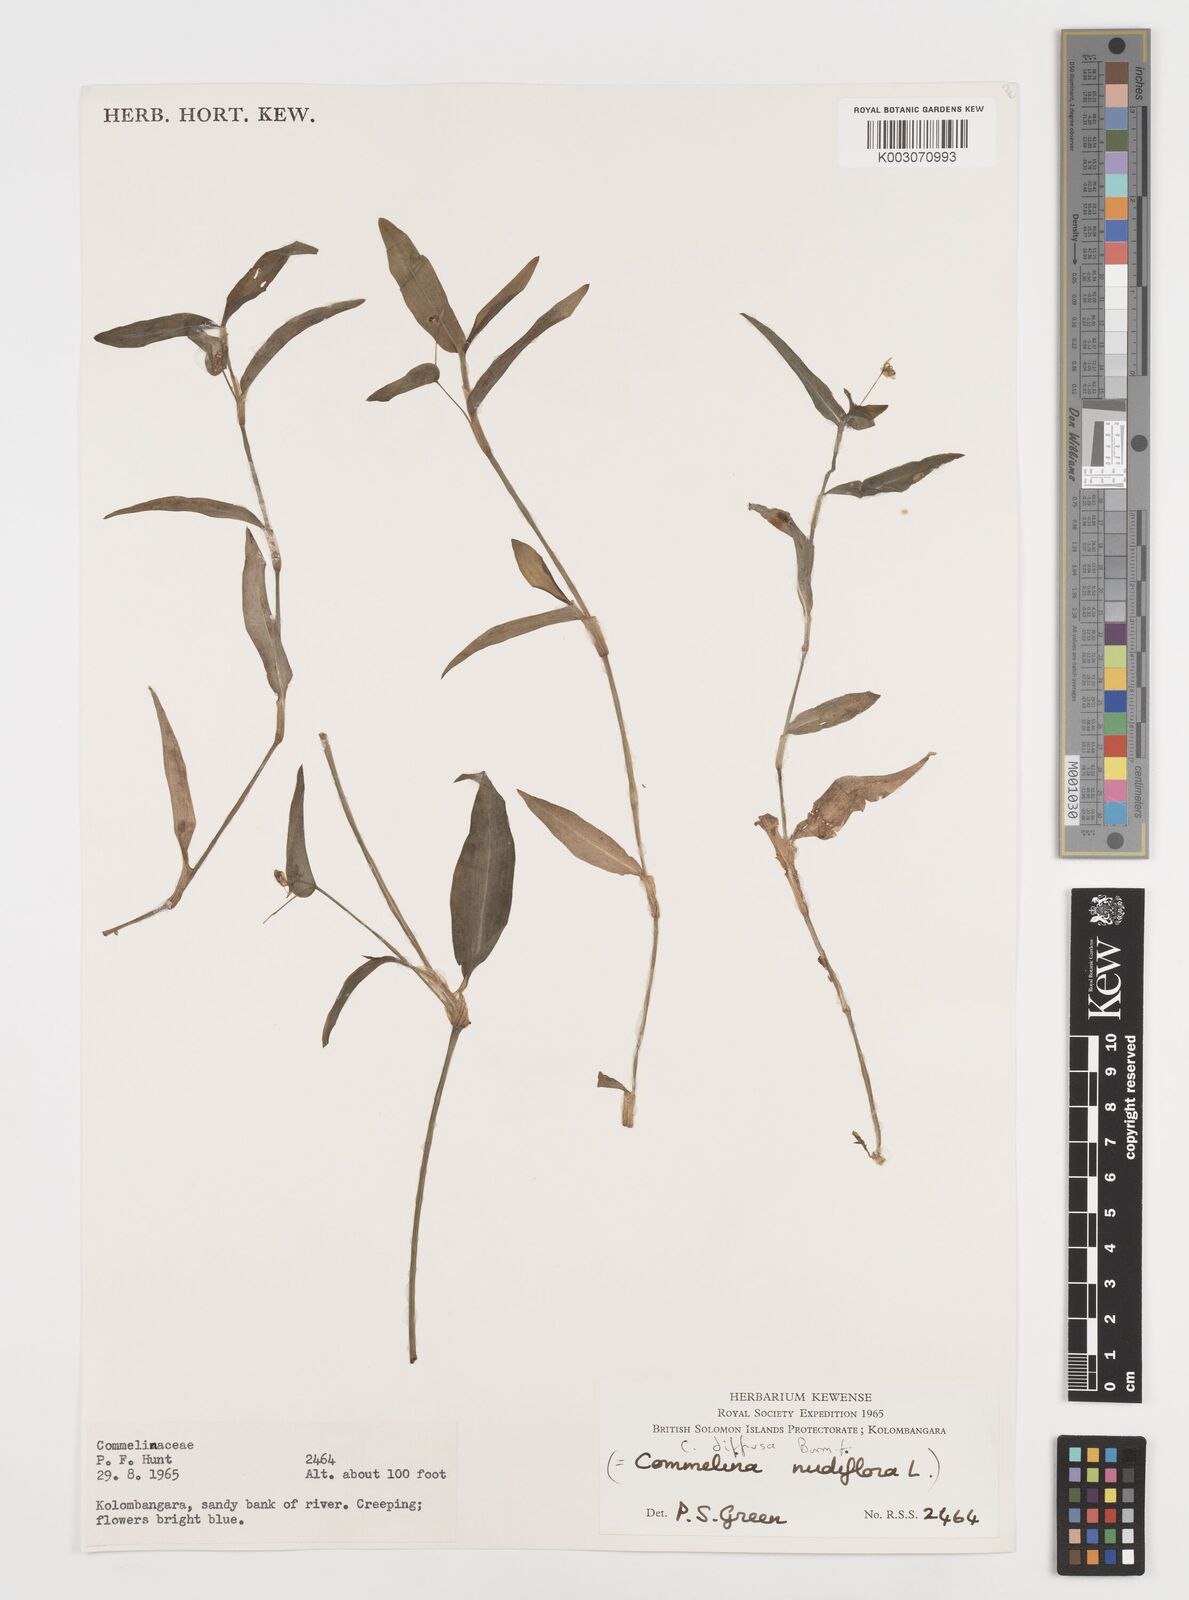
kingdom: Plantae
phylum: Tracheophyta
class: Liliopsida
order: Commelinales
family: Commelinaceae
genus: Commelina
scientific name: Commelina diffusa
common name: Climbing dayflower
